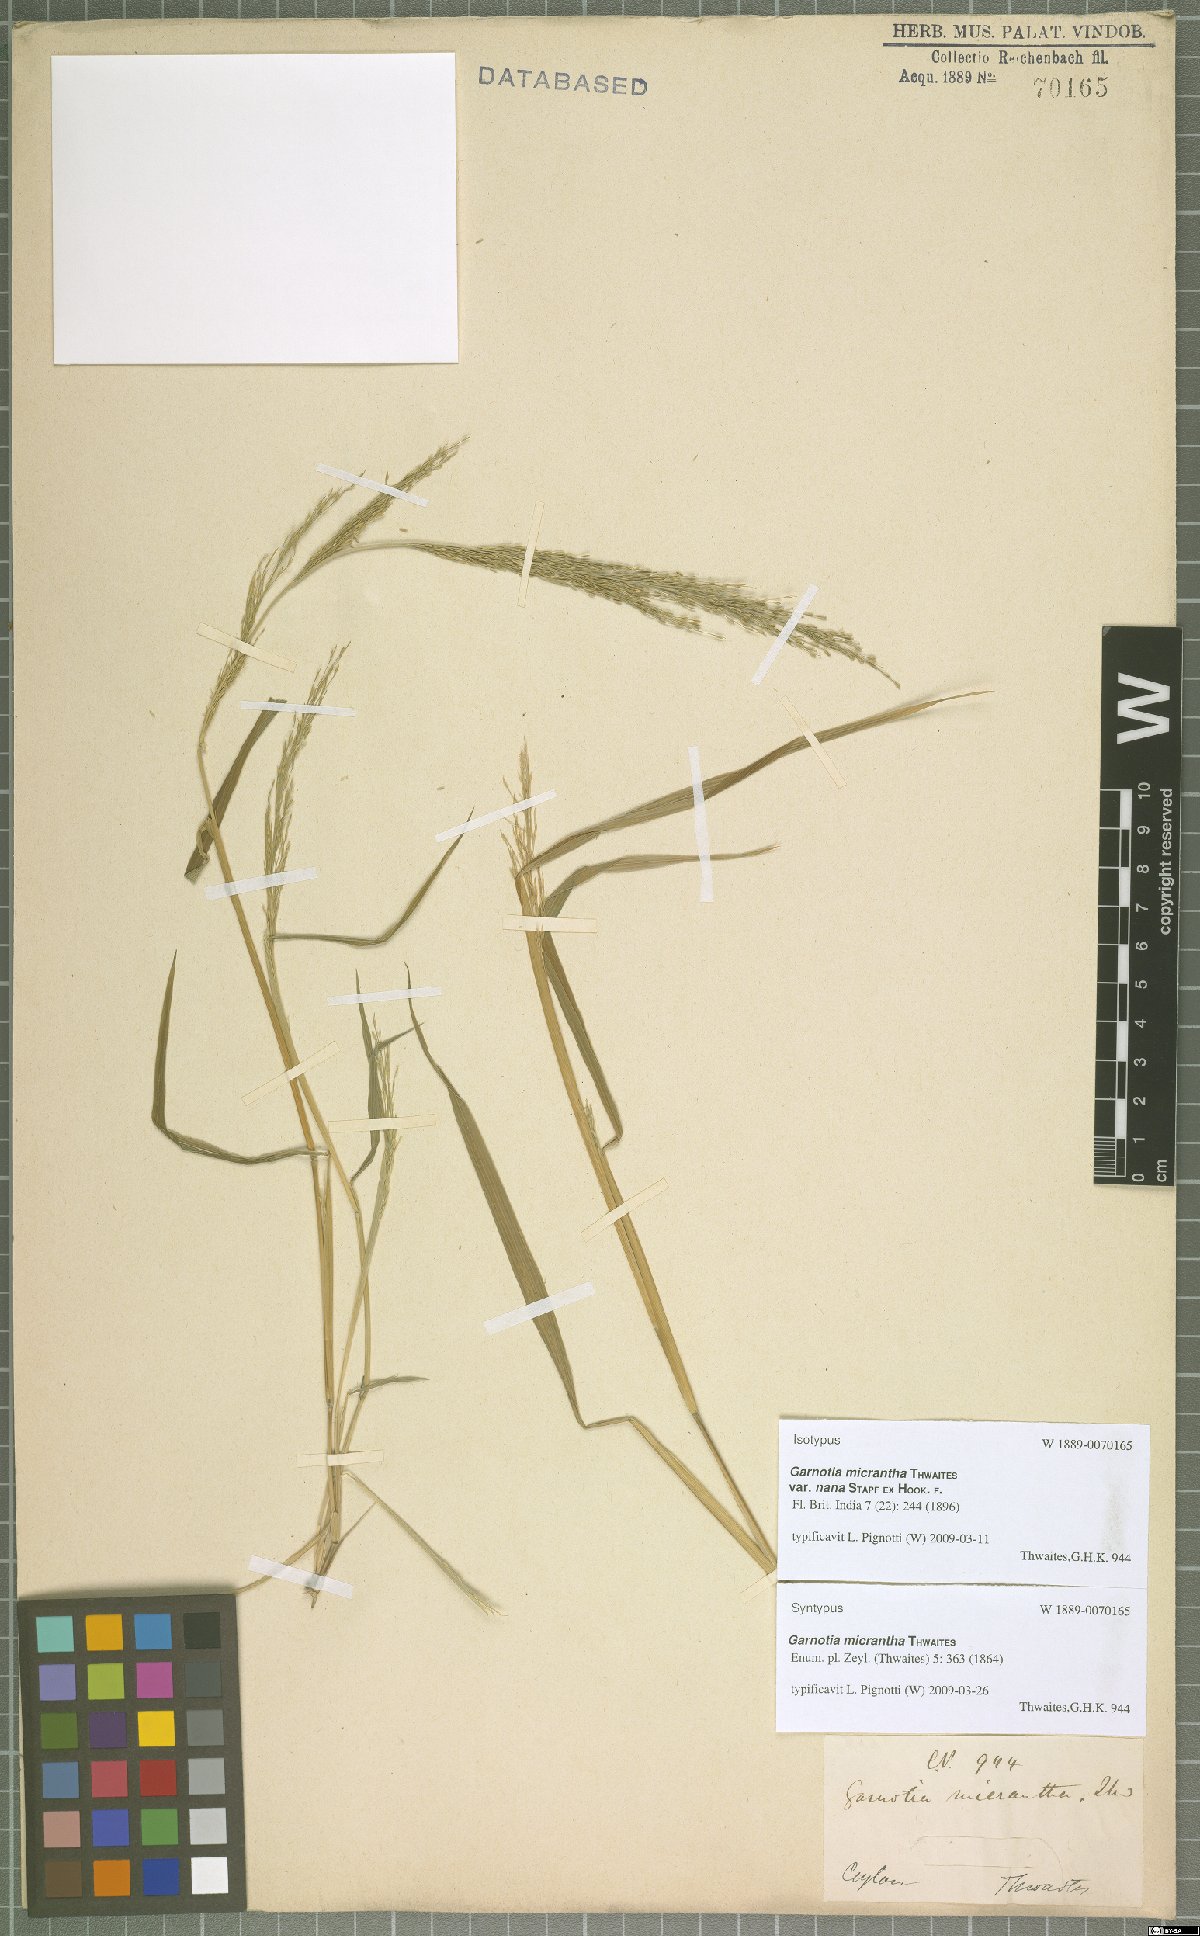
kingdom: Plantae
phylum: Tracheophyta
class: Liliopsida
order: Poales
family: Poaceae
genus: Garnotia
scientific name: Garnotia micrantha
